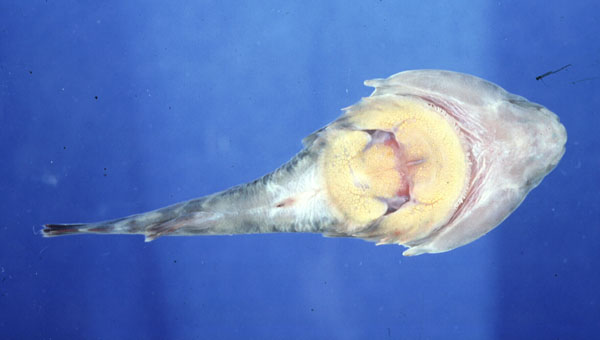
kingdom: Animalia
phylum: Chordata
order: Gobiesociformes
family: Gobiesocidae
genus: Chorisochismus
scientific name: Chorisochismus dentex
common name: Rocksucker
